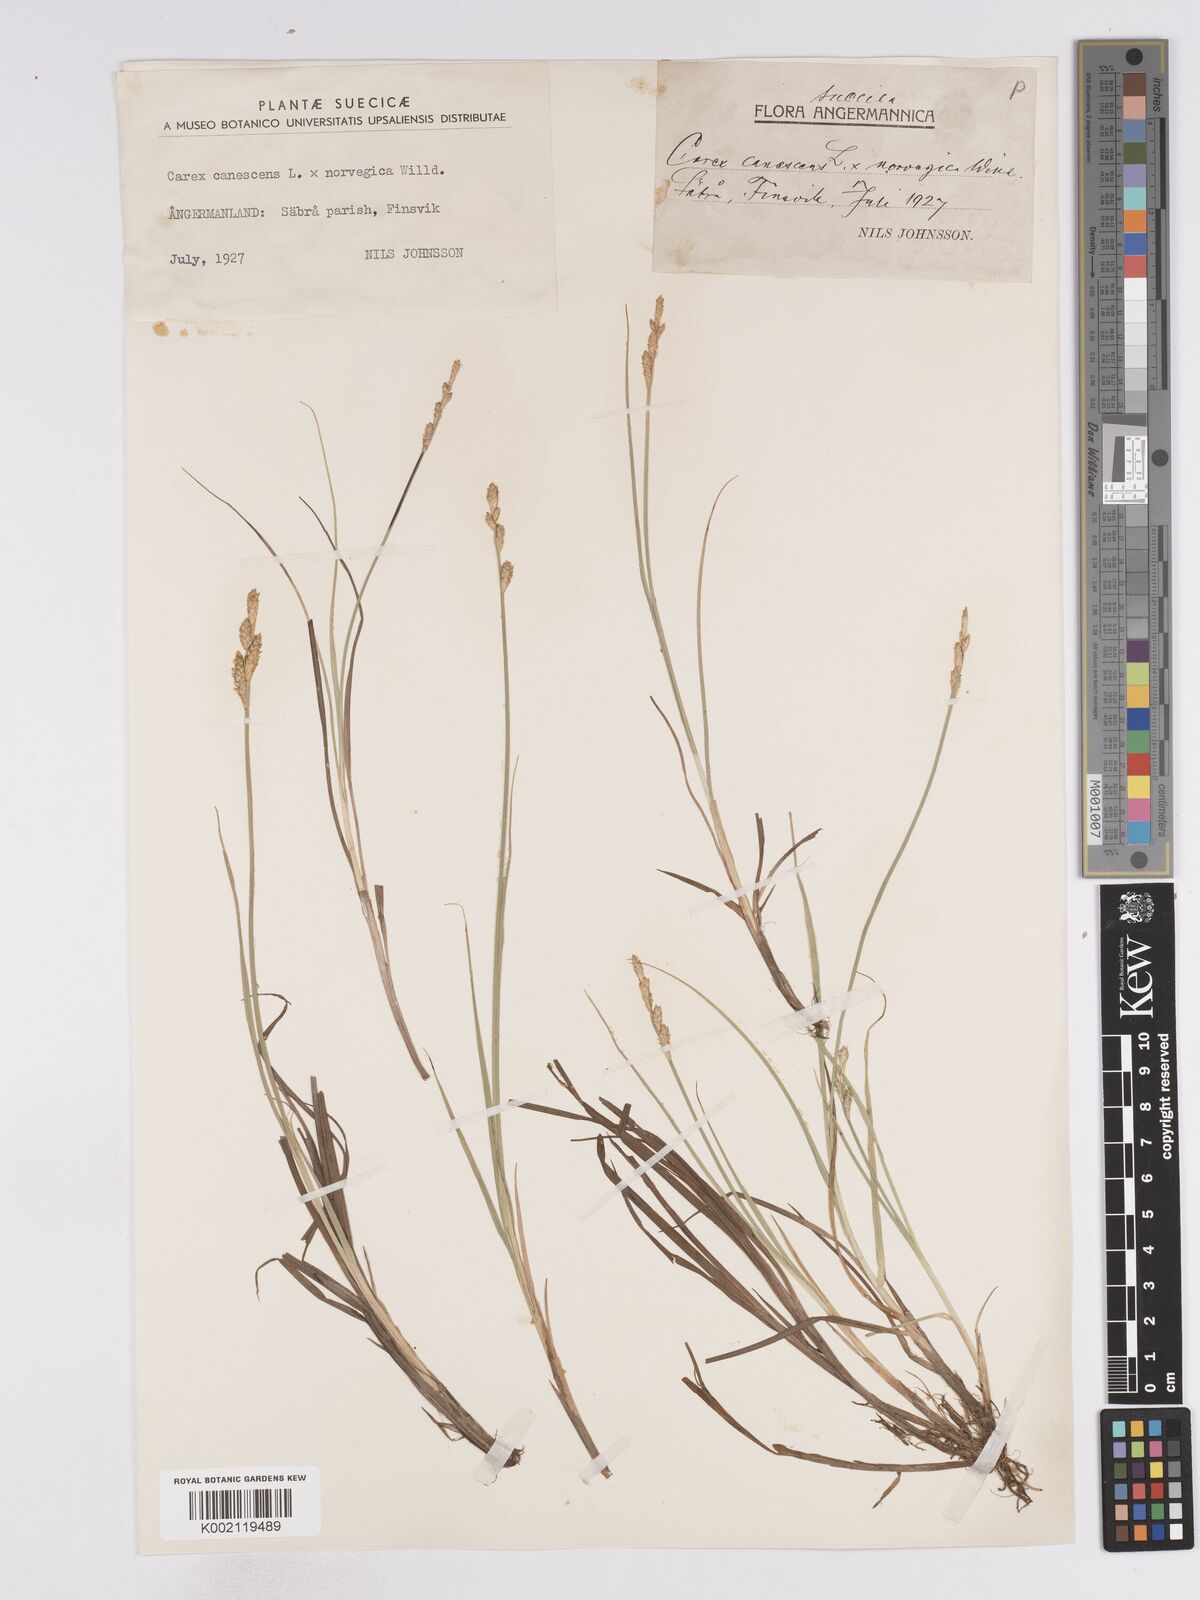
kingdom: Plantae
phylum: Tracheophyta
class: Liliopsida
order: Poales
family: Cyperaceae
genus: Carex
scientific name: Carex mackenziei
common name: Mackenzie's sedge
